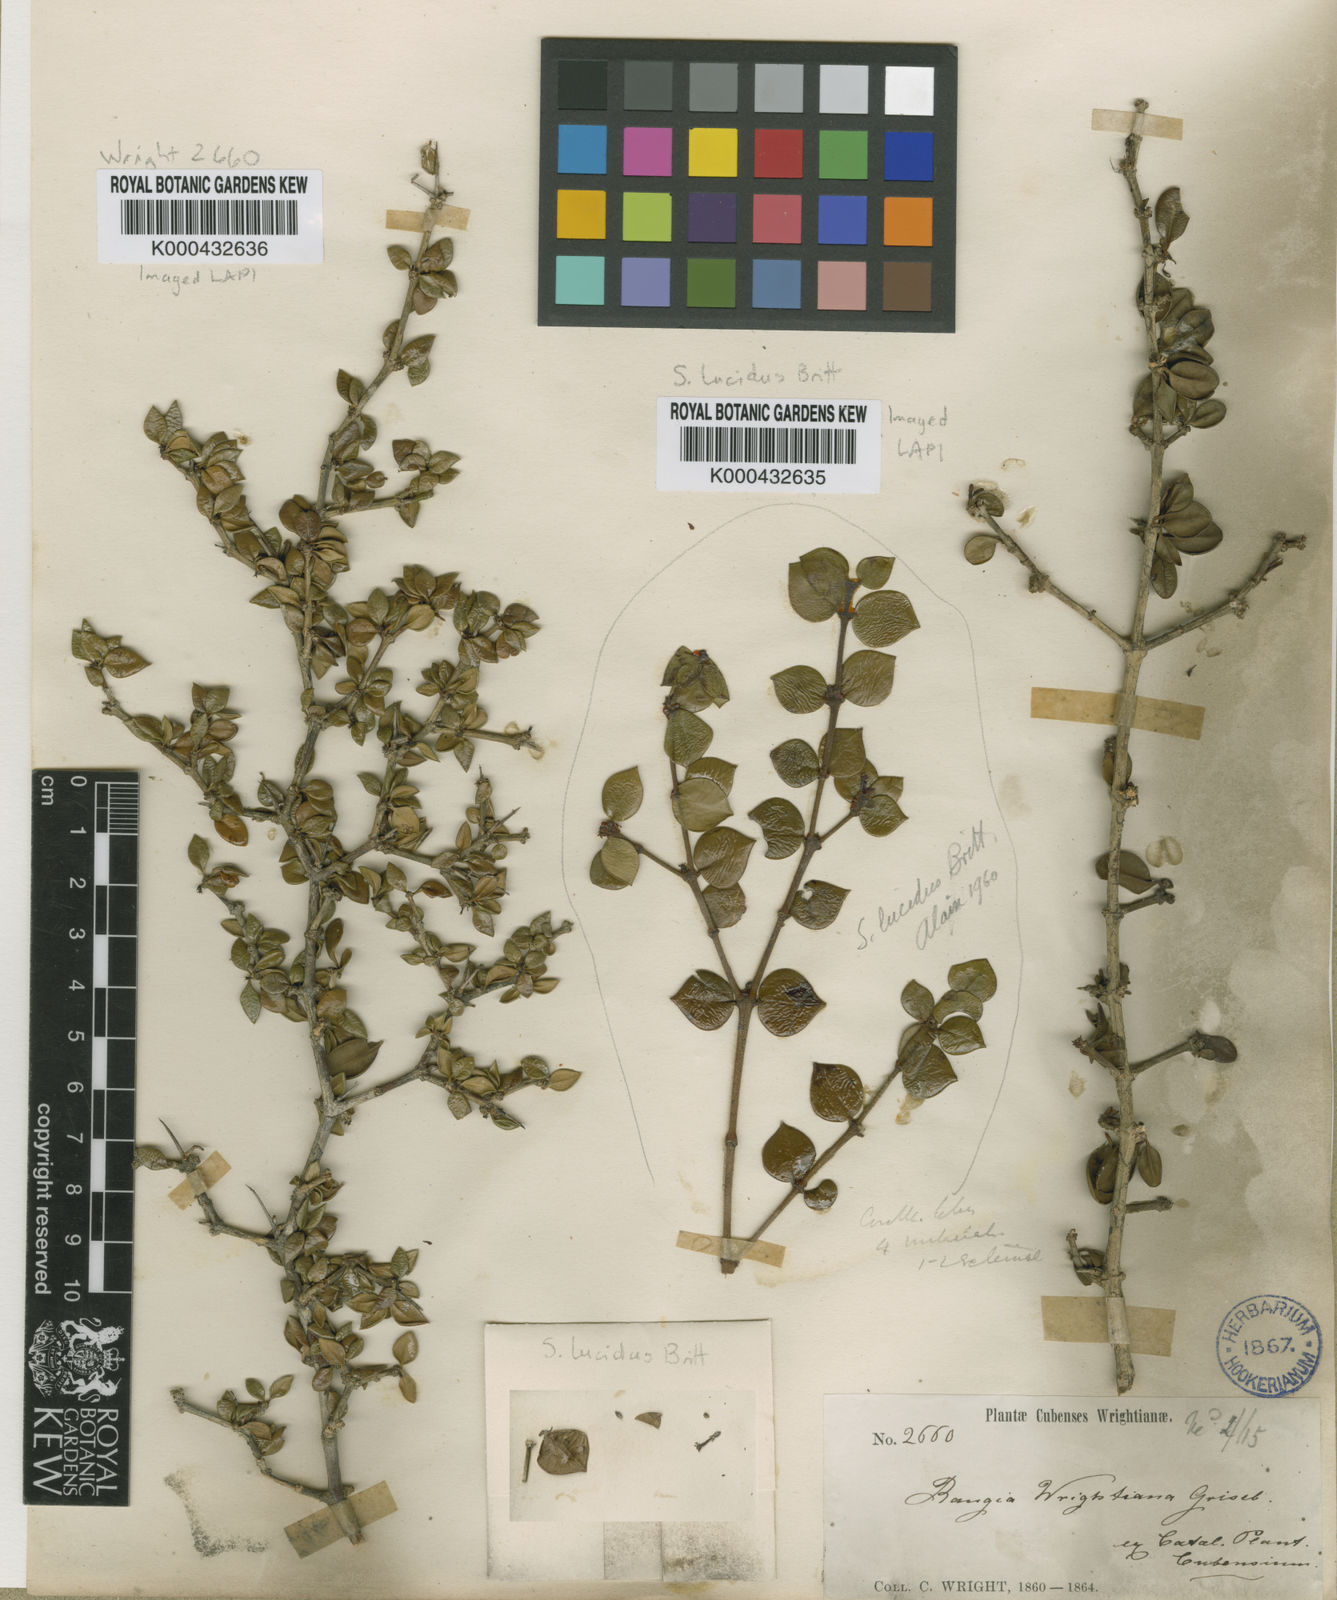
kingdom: Plantae
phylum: Tracheophyta
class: Magnoliopsida
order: Gentianales
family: Rubiaceae
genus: Scolosanthus
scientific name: Scolosanthus
